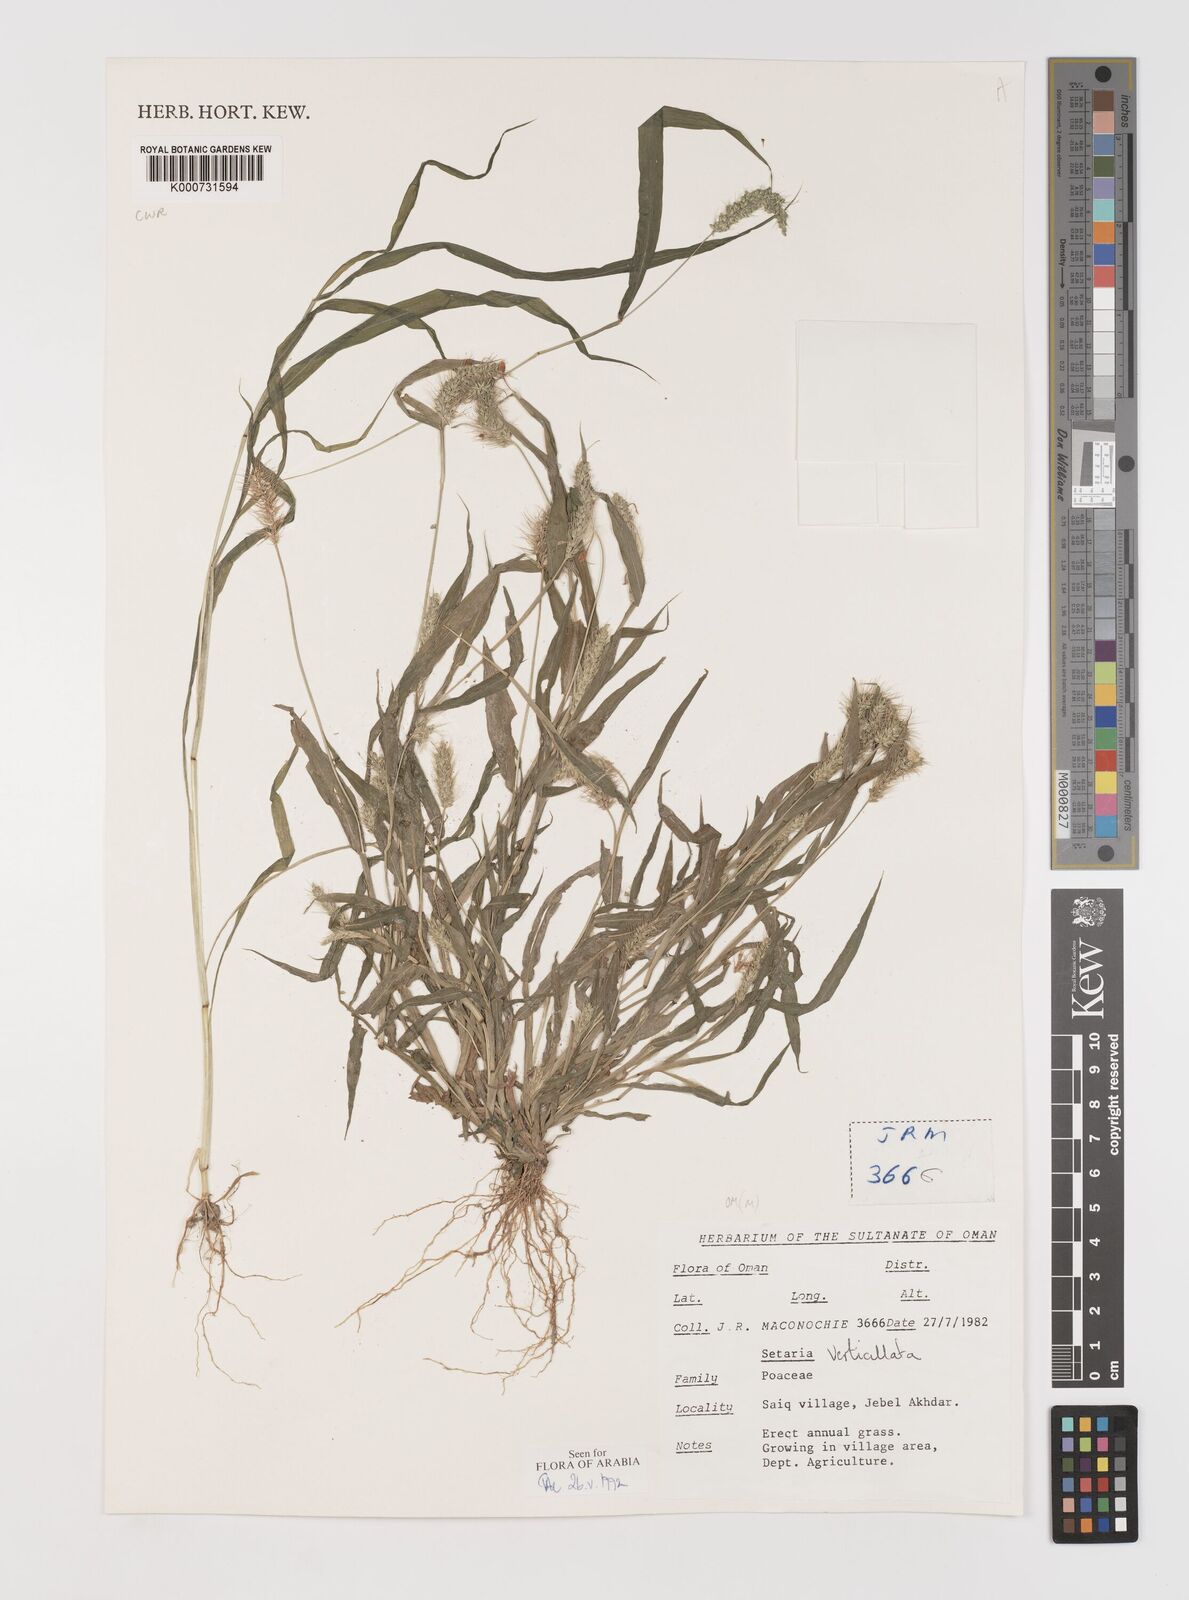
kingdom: Plantae
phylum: Tracheophyta
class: Liliopsida
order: Poales
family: Poaceae
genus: Setaria
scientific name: Setaria verticillata
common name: Hooked bristlegrass
